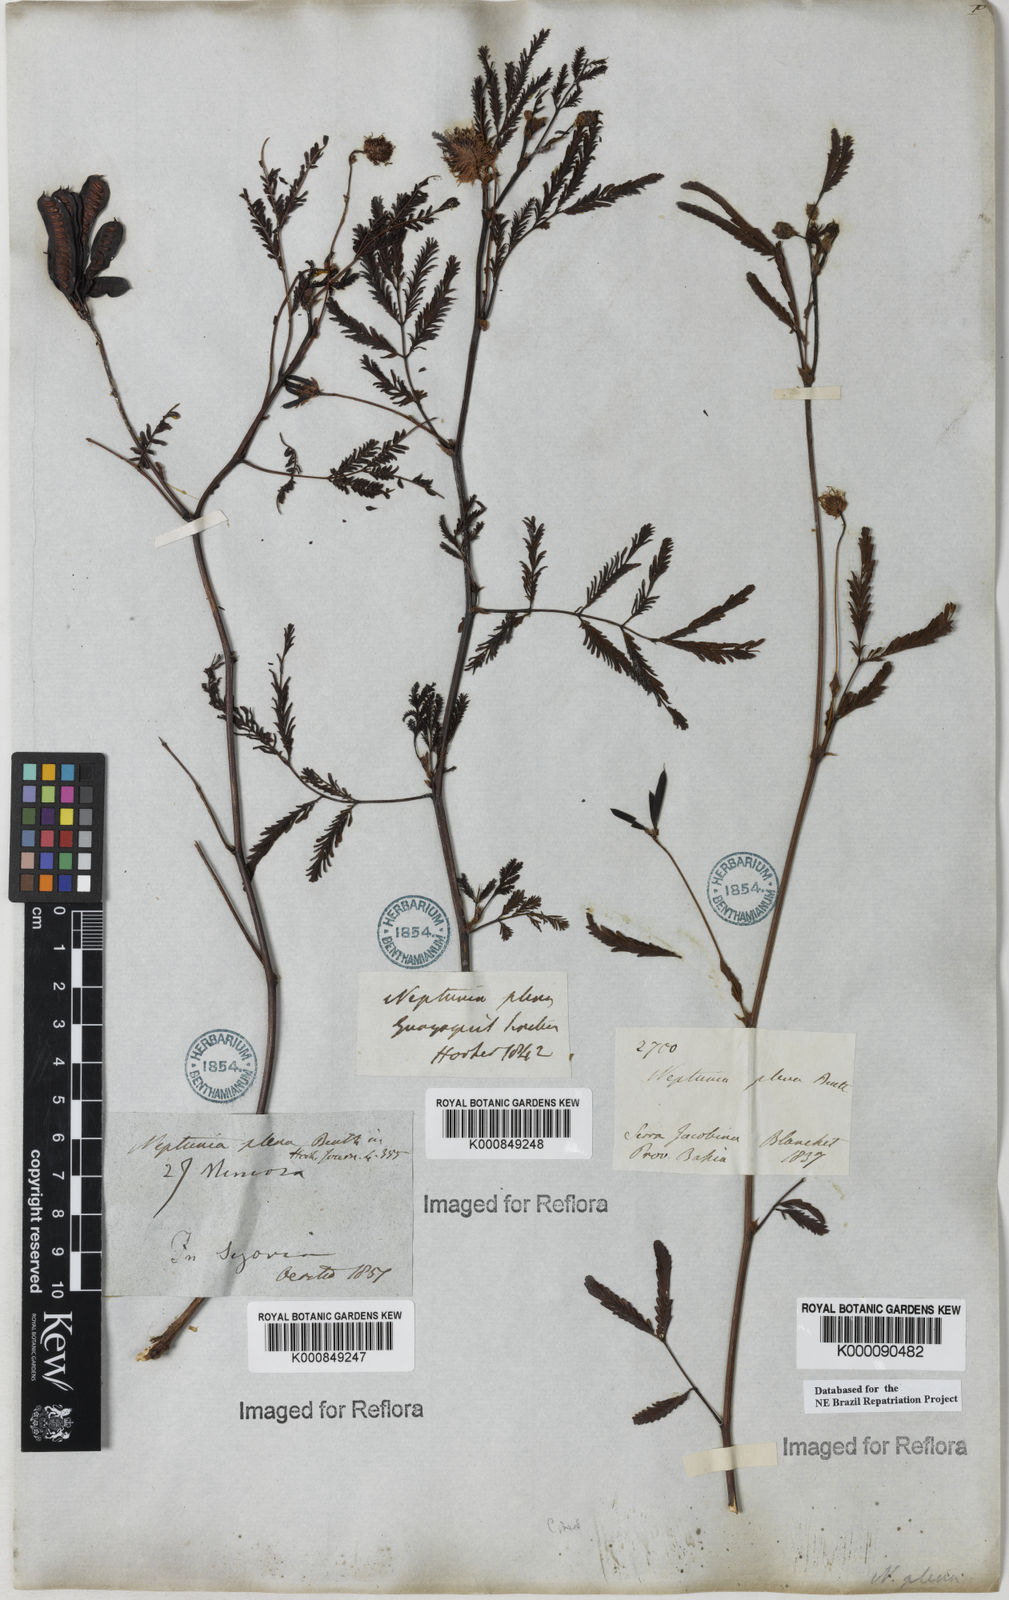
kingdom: Plantae
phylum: Tracheophyta
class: Magnoliopsida
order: Fabales
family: Fabaceae
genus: Neptunia
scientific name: Neptunia plena
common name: Dead and awake
